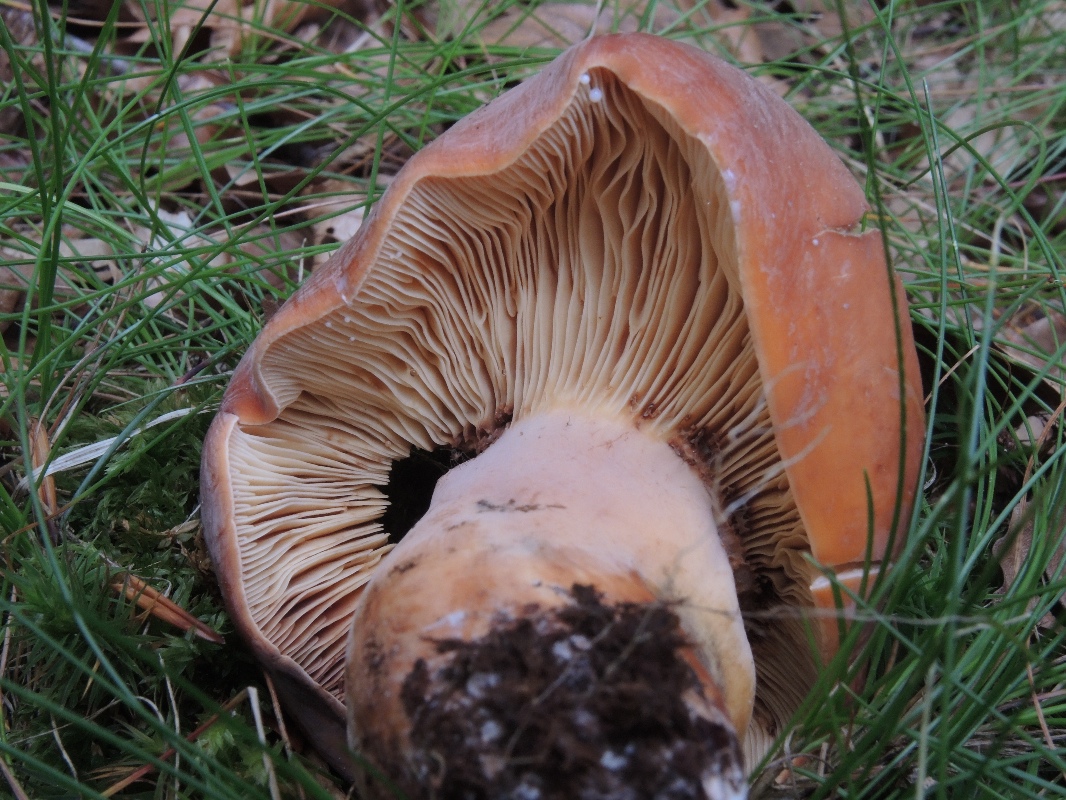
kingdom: Fungi
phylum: Basidiomycota
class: Agaricomycetes
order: Russulales
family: Russulaceae
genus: Lactifluus
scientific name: Lactifluus volemus
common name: spiselig mælkehat
